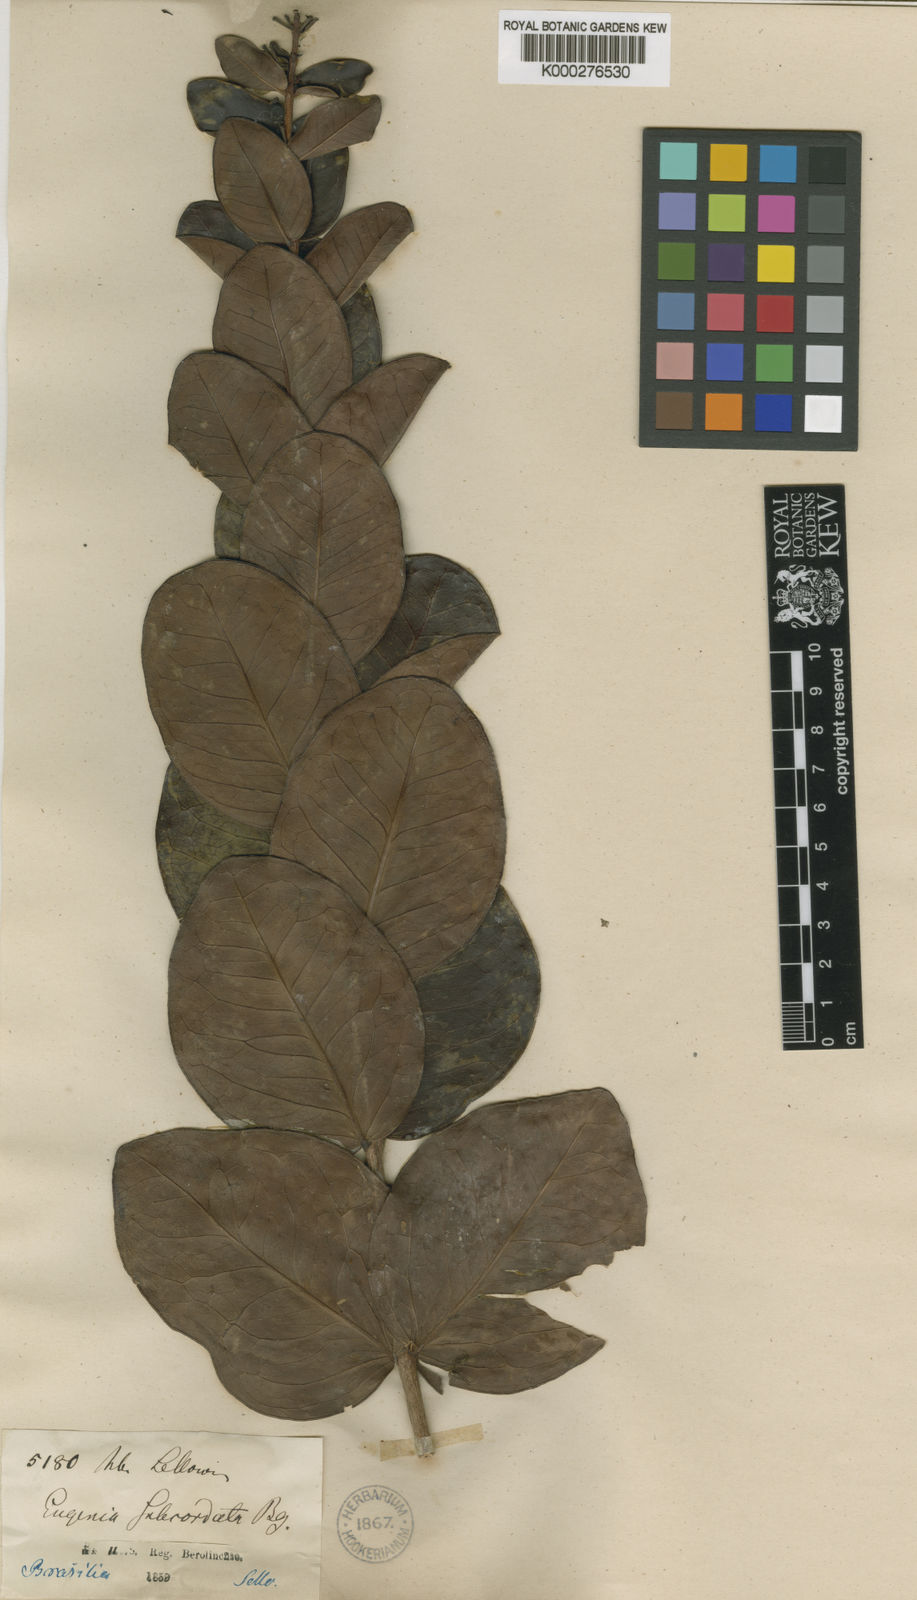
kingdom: Plantae
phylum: Tracheophyta
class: Magnoliopsida
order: Myrtales
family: Myrtaceae
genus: Eugenia
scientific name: Eugenia subcordata
